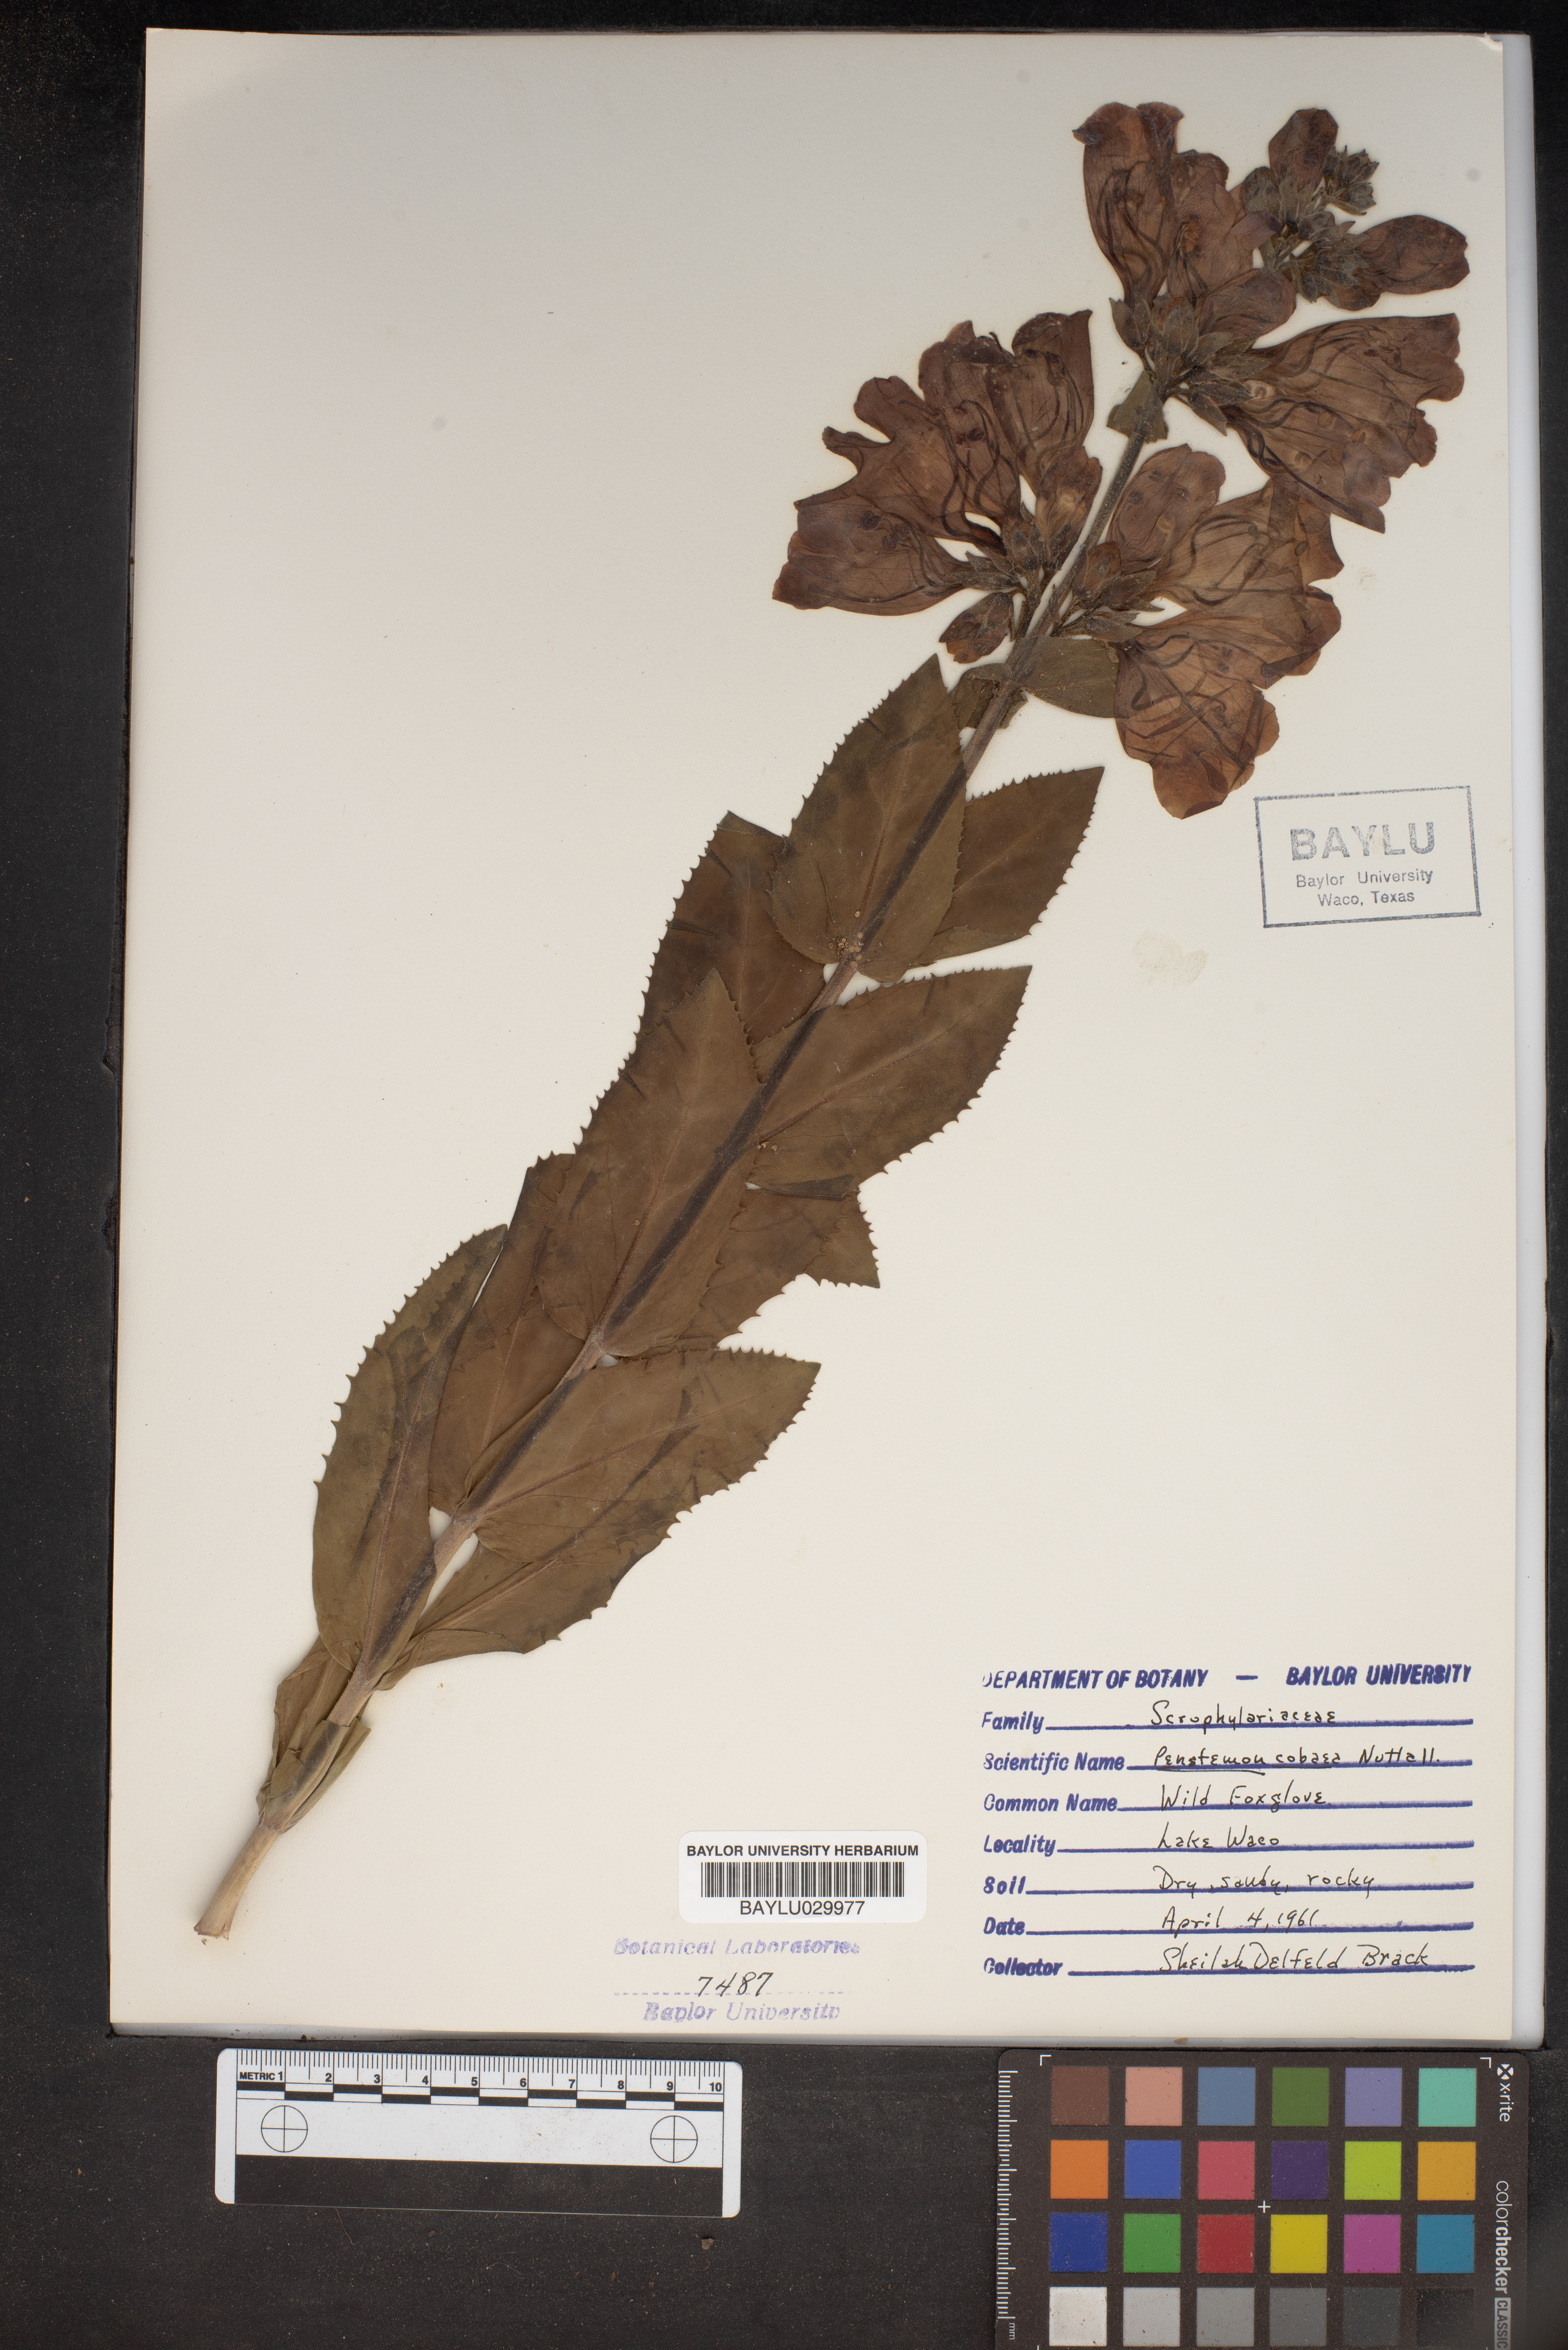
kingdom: Plantae
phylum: Tracheophyta
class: Magnoliopsida
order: Lamiales
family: Plantaginaceae
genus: Penstemon
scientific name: Penstemon cobaea
